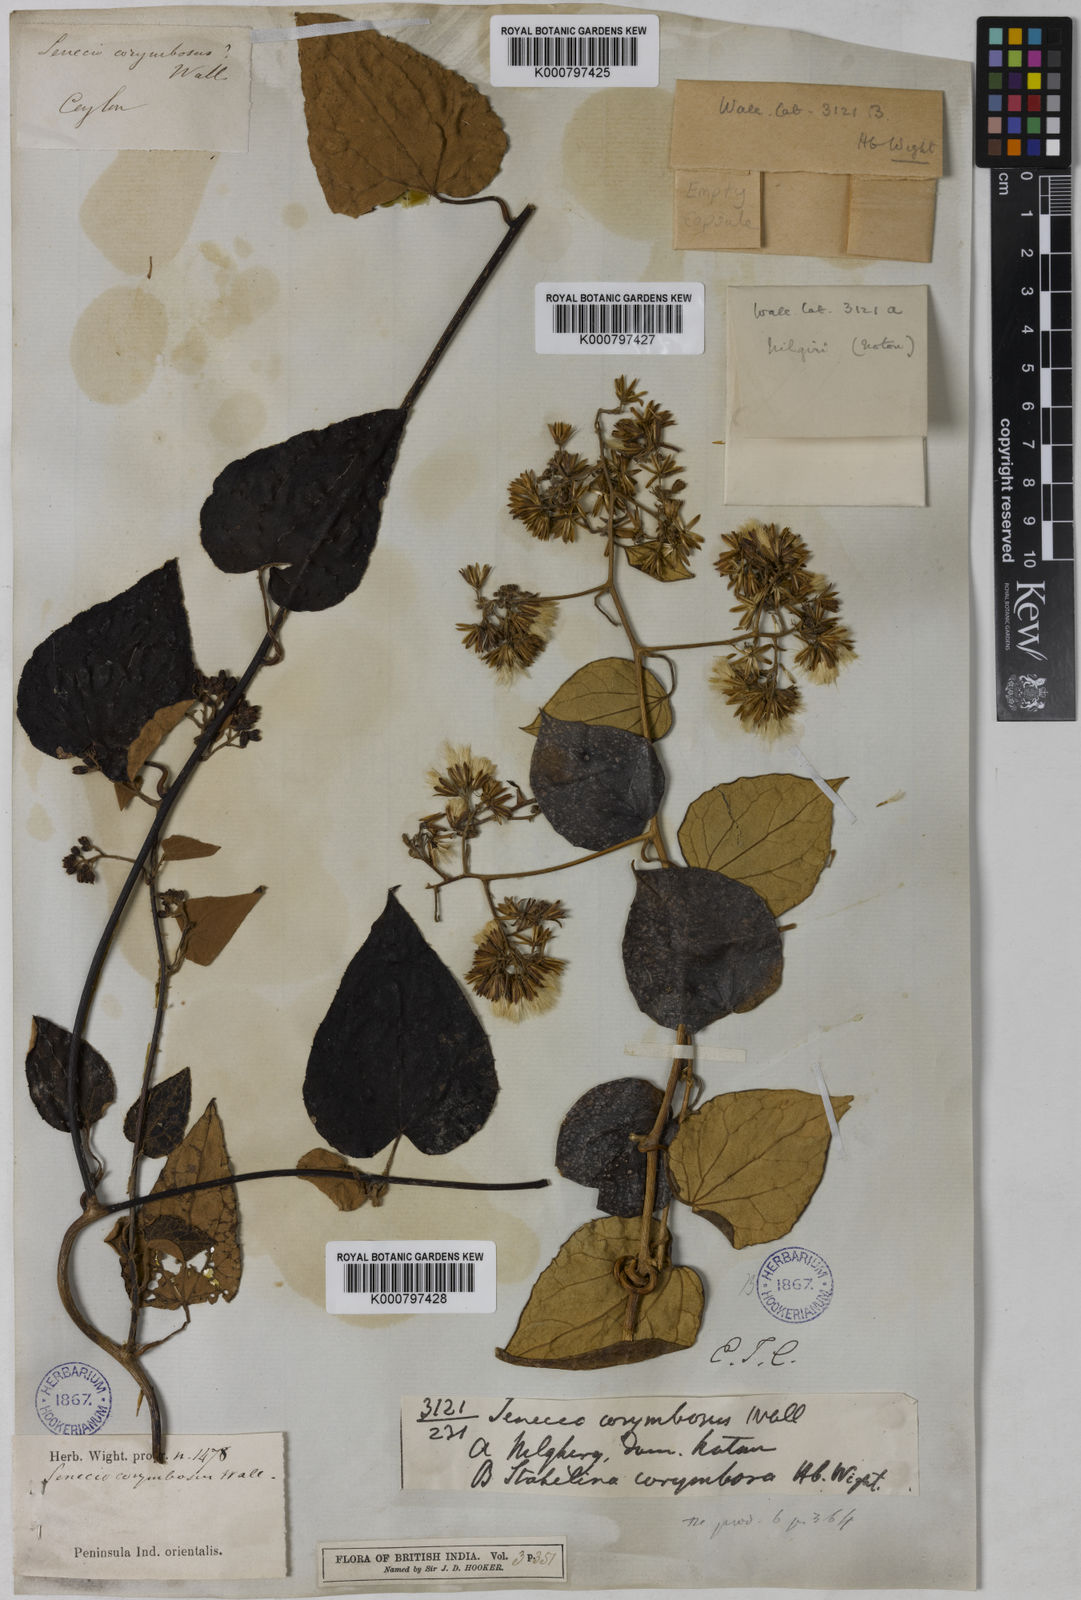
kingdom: Plantae
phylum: Tracheophyta
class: Magnoliopsida
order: Asterales
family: Asteraceae
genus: Cissampelopsis
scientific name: Cissampelopsis corymbosa
